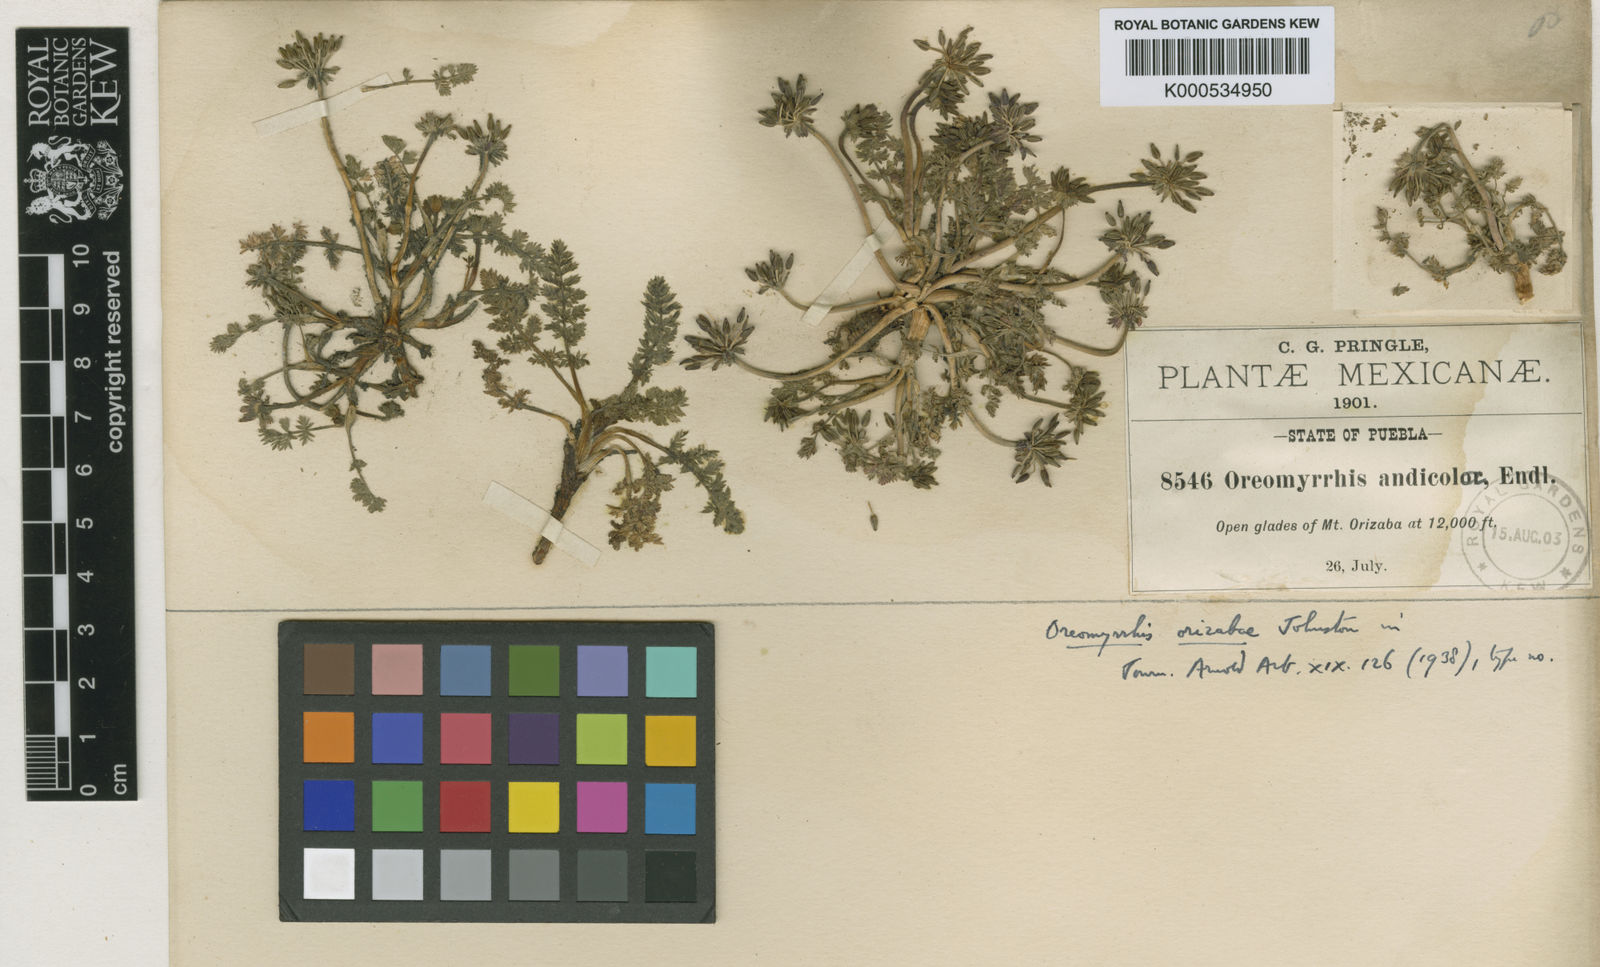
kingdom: Plantae
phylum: Tracheophyta
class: Magnoliopsida
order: Apiales
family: Apiaceae
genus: Chaerophyllum
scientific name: Chaerophyllum orizabae
